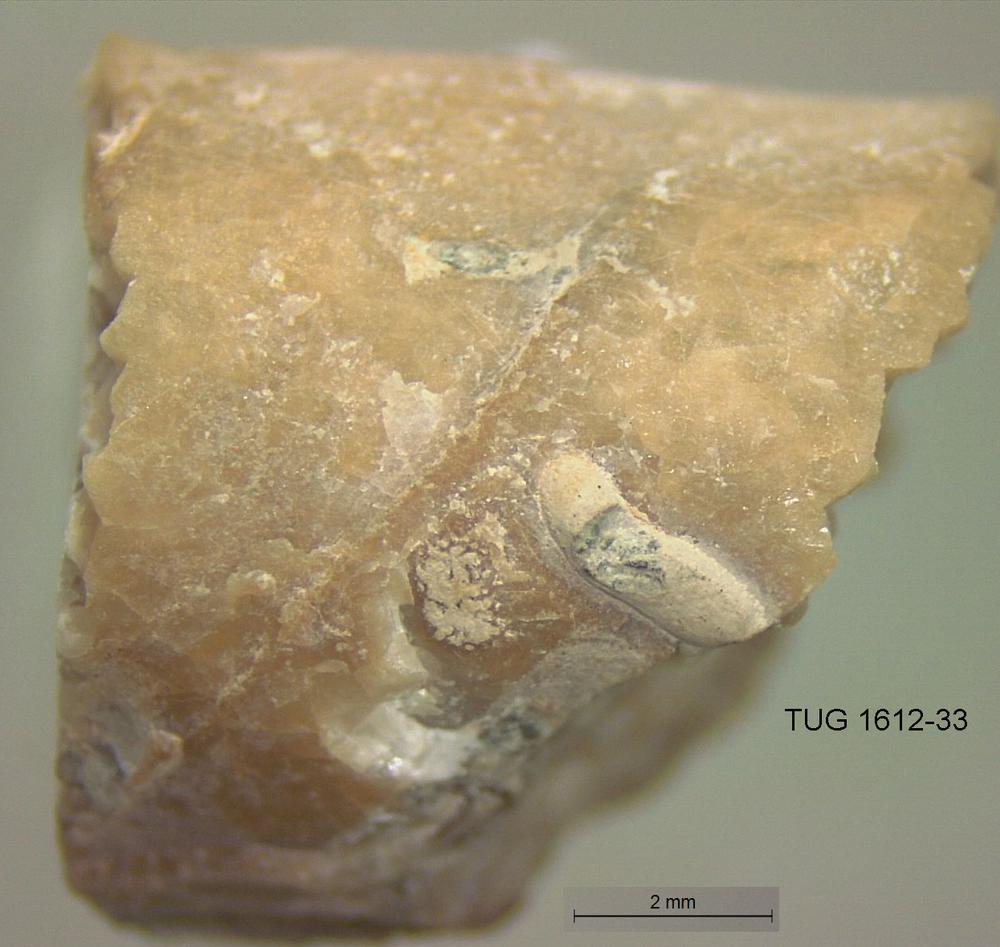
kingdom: Animalia
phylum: Sipuncula
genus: Trypanites
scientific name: Trypanites
